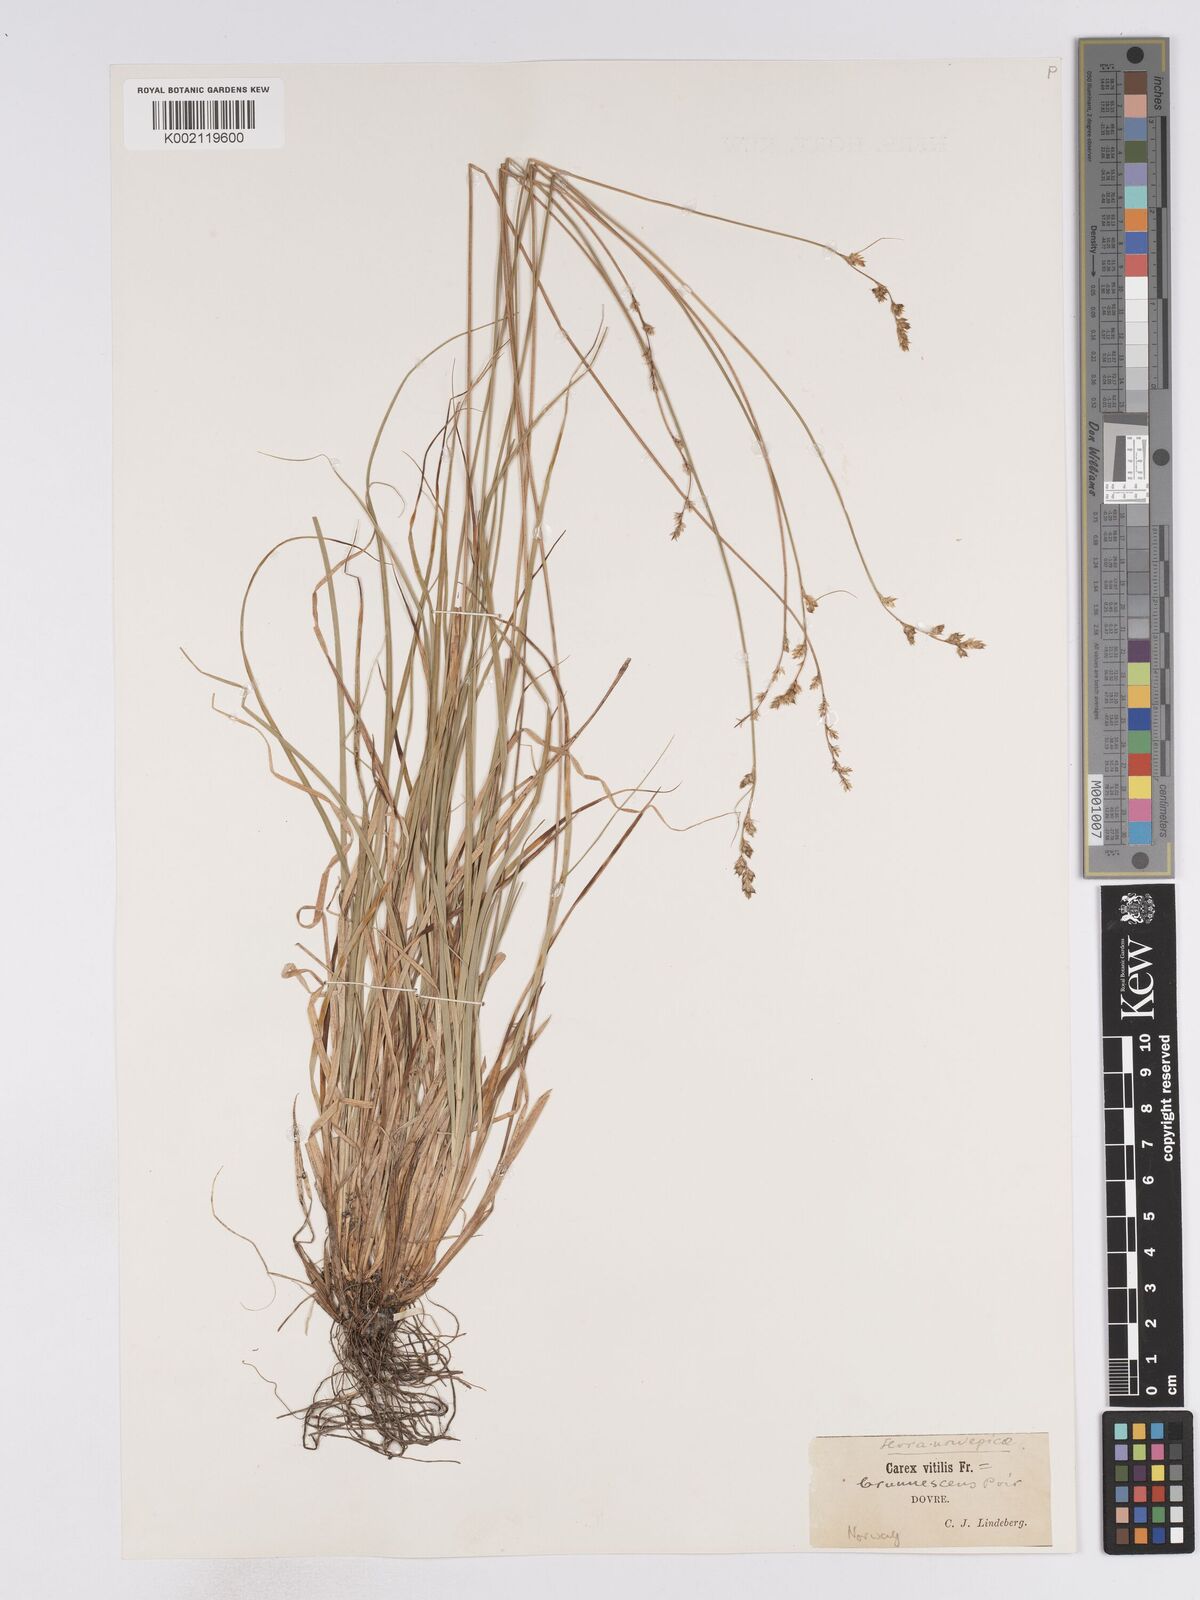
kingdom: Plantae
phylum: Tracheophyta
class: Liliopsida
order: Poales
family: Cyperaceae
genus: Carex
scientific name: Carex curta
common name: White sedge
